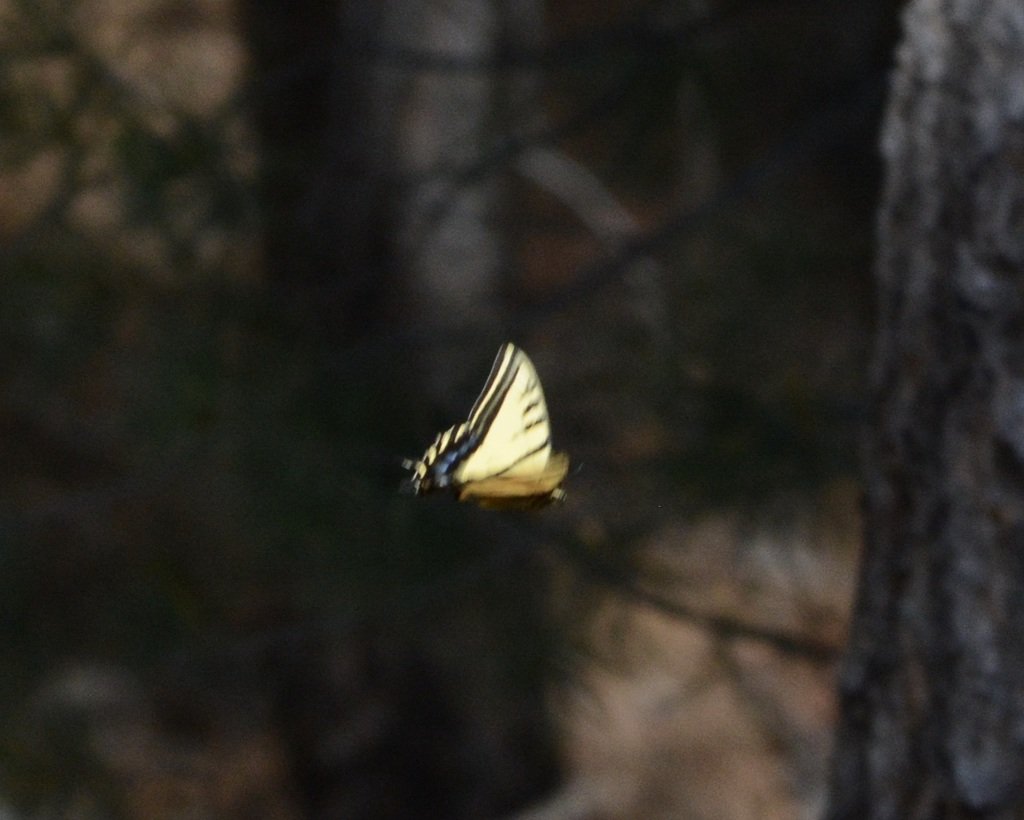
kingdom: Animalia
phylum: Arthropoda
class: Insecta
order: Lepidoptera
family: Papilionidae
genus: Papilio
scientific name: Papilio multicaudata
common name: Two-tailed Swallowtail
